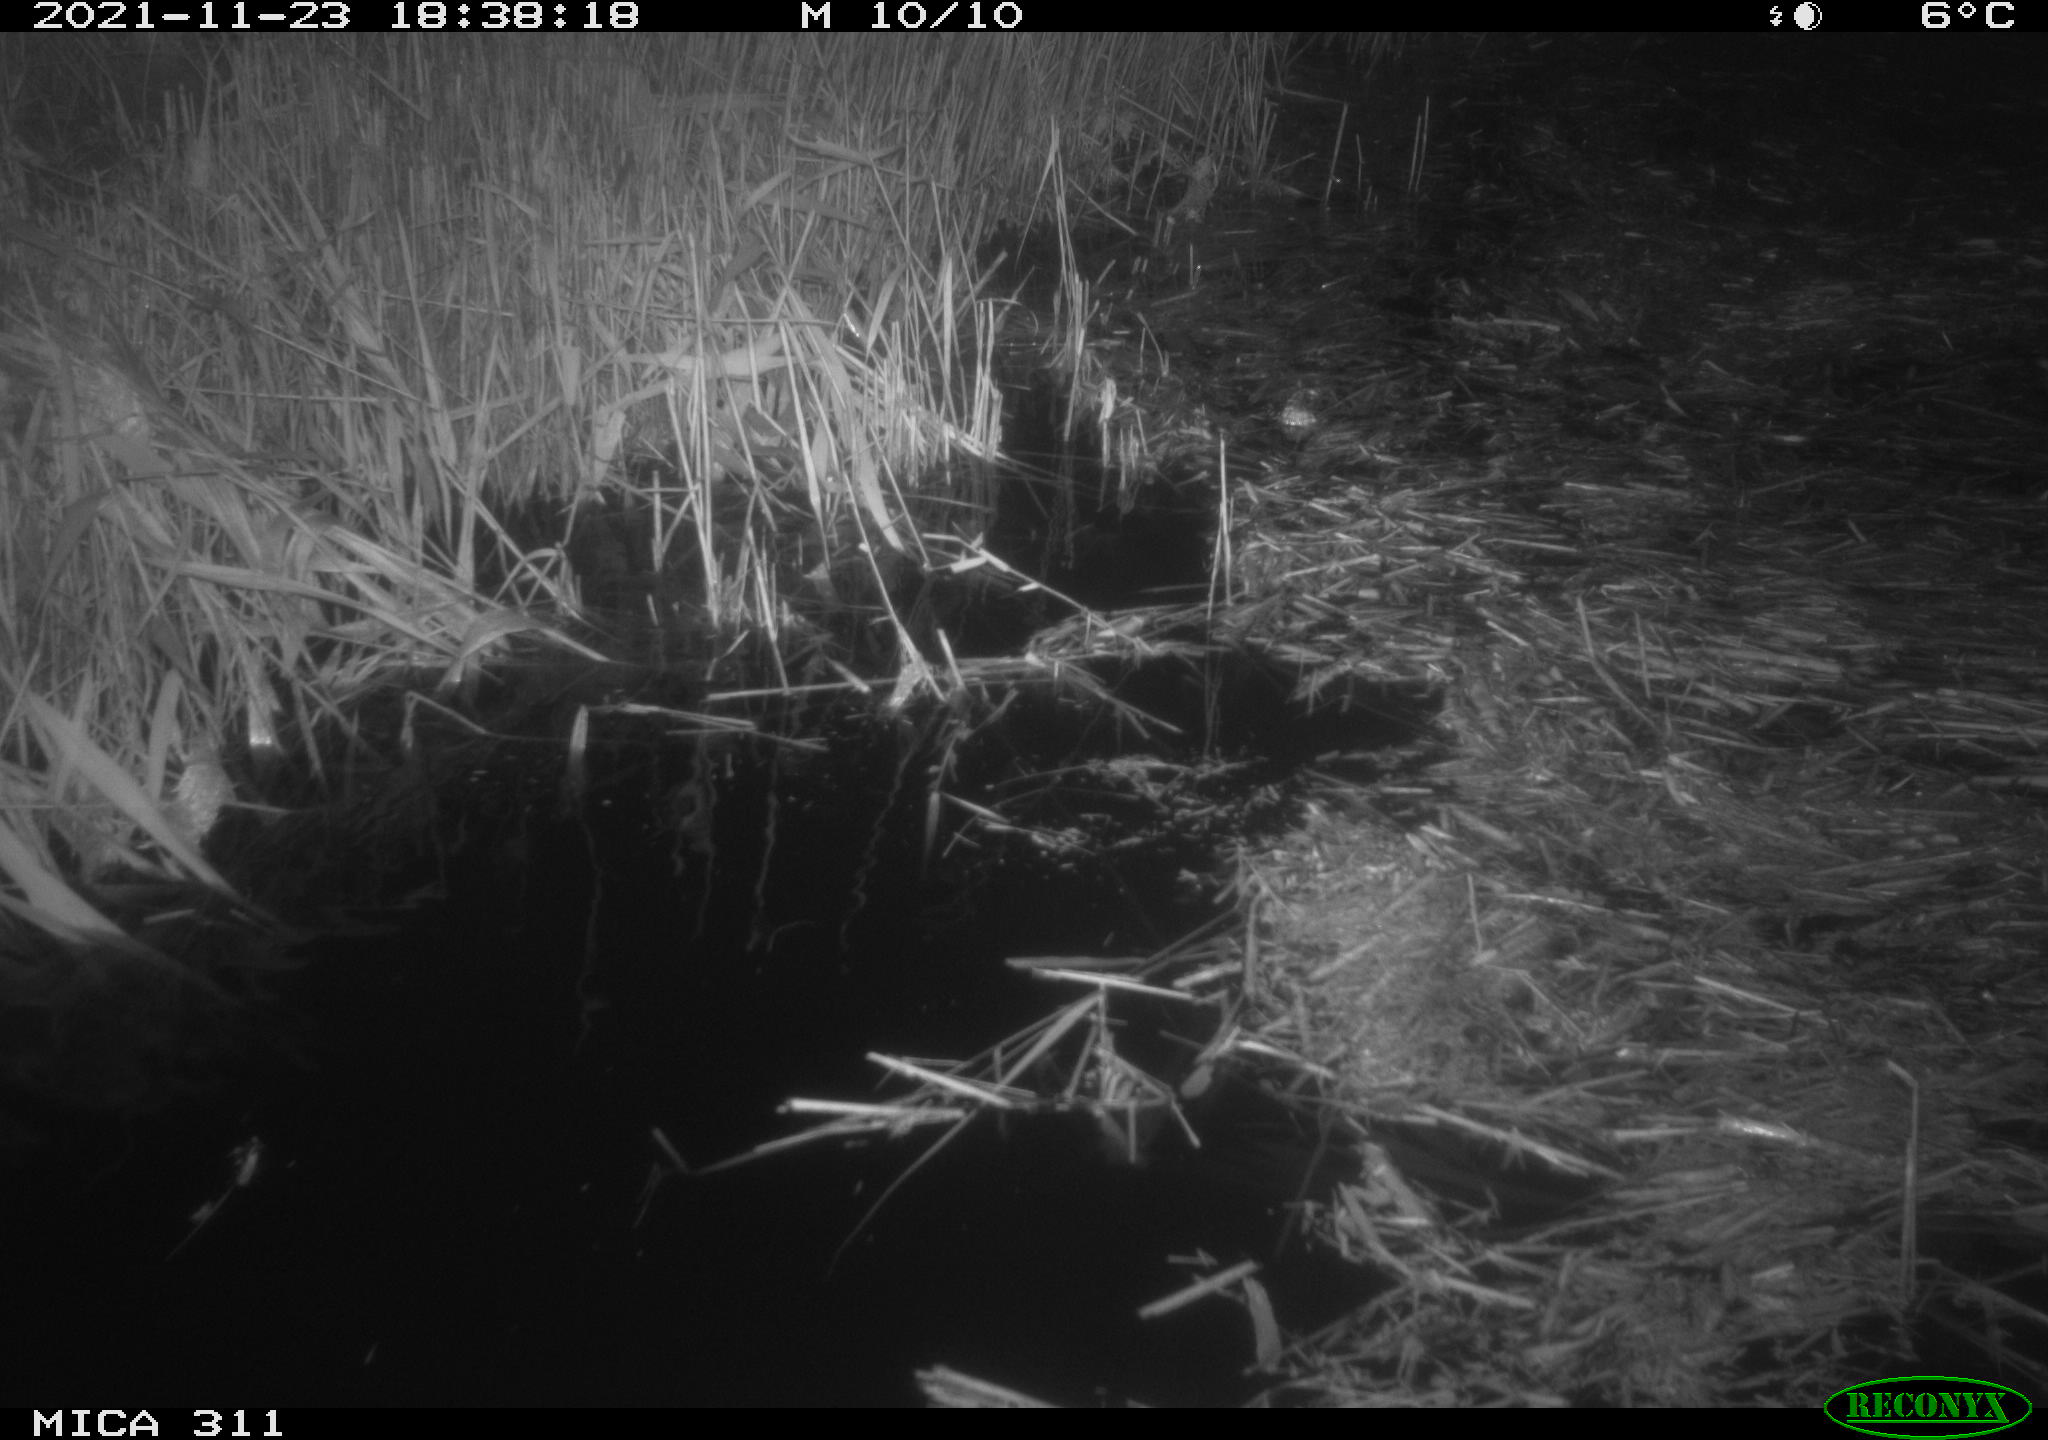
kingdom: Animalia
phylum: Chordata
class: Mammalia
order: Rodentia
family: Muridae
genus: Rattus
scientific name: Rattus norvegicus
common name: Brown rat
